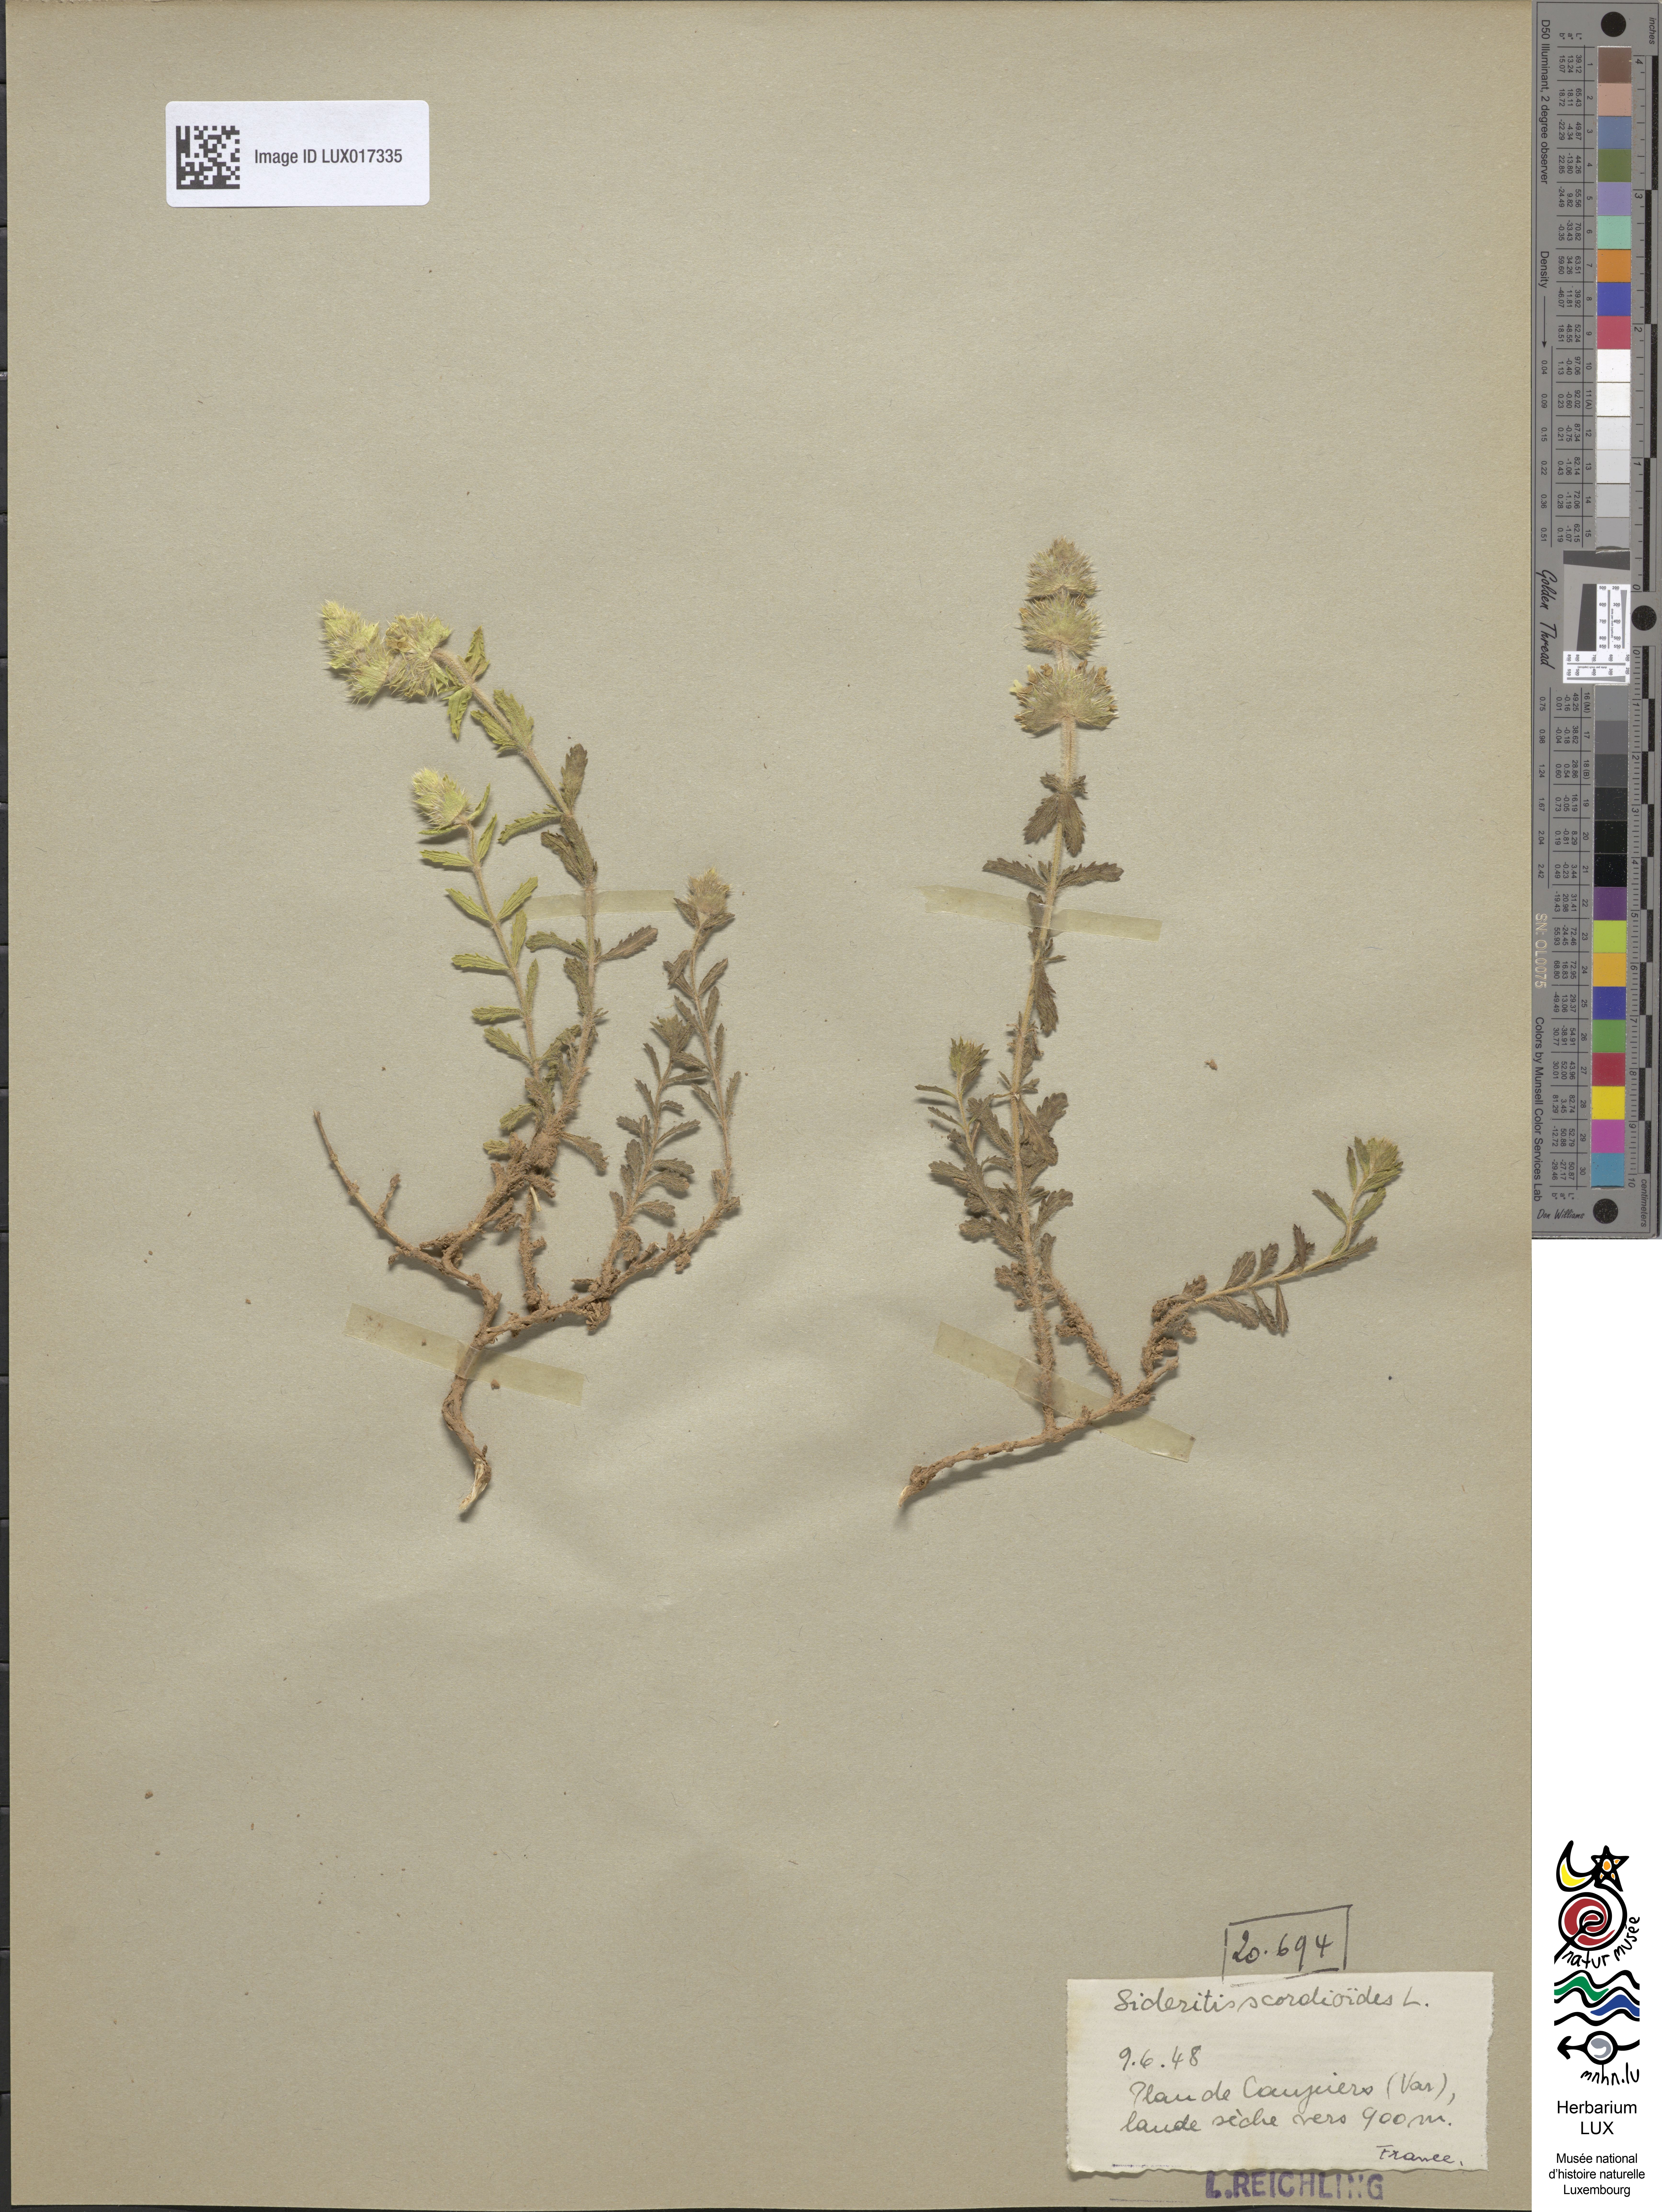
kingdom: Plantae
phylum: Tracheophyta
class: Magnoliopsida
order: Lamiales
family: Lamiaceae
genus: Sideritis
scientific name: Sideritis hyssopifolia
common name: Mountain tea
